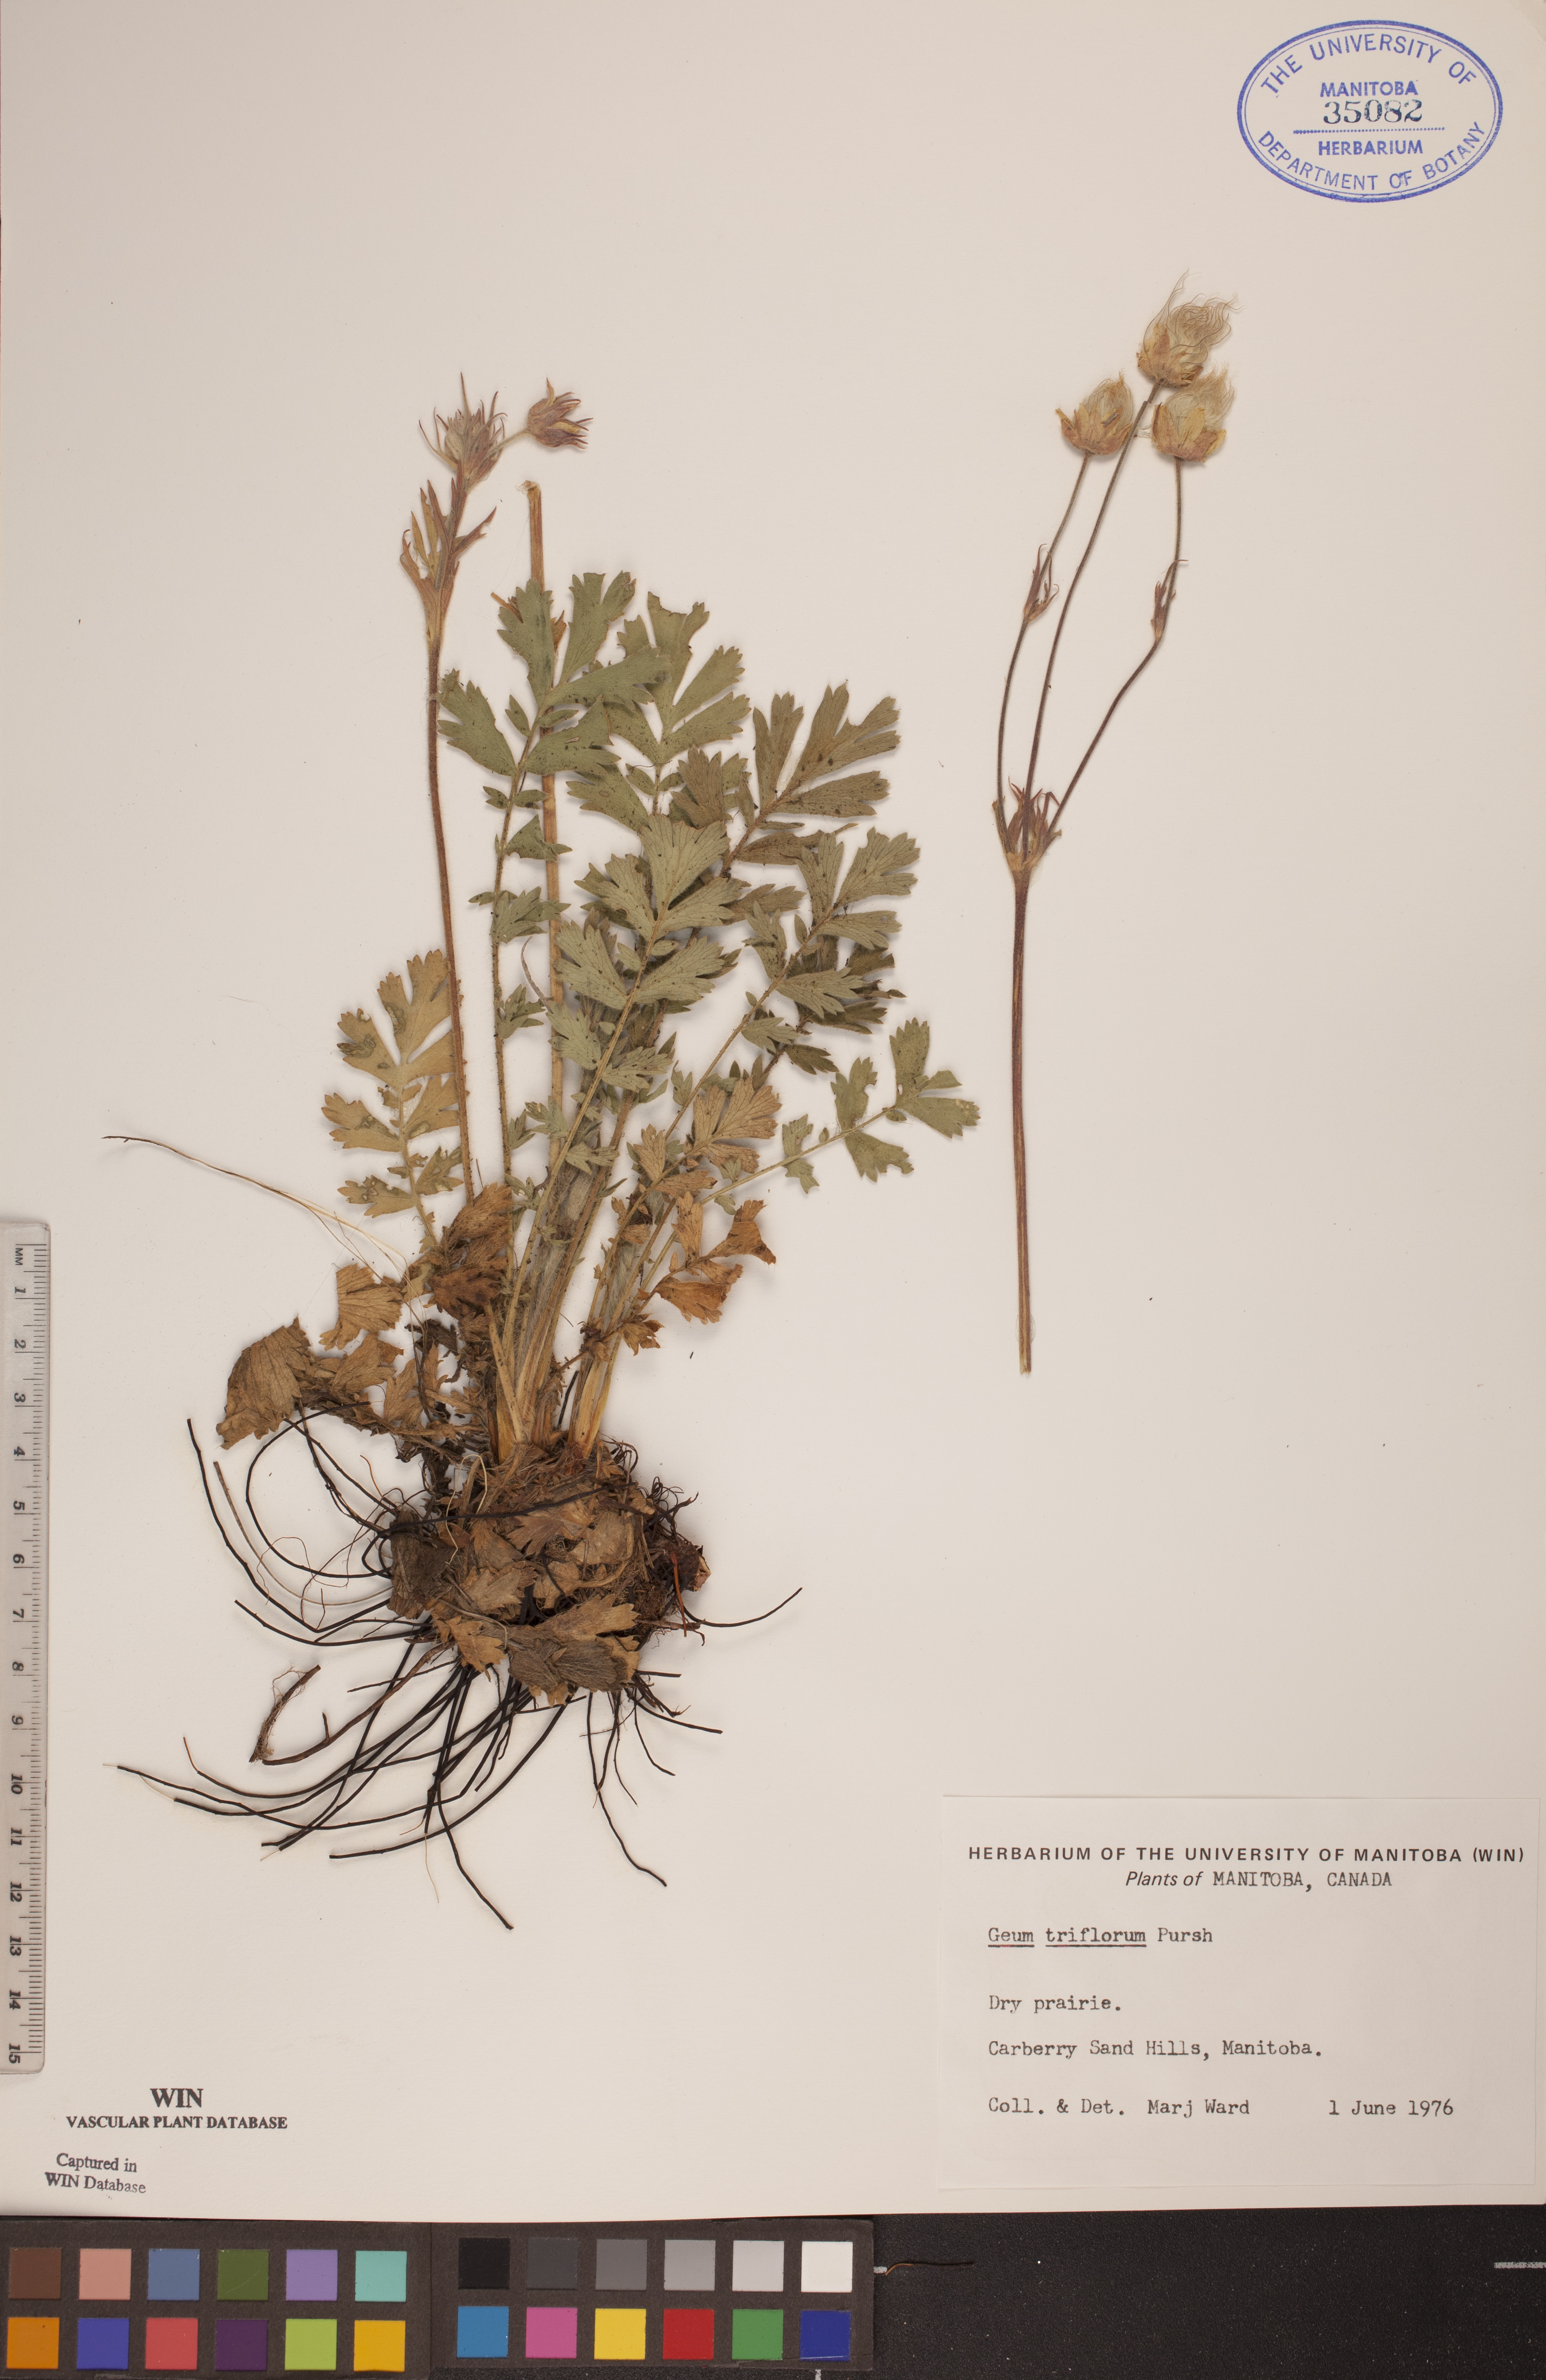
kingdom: Plantae
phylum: Tracheophyta
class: Magnoliopsida
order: Rosales
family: Rosaceae
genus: Geum
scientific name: Geum triflorum
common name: Old man's whiskers
